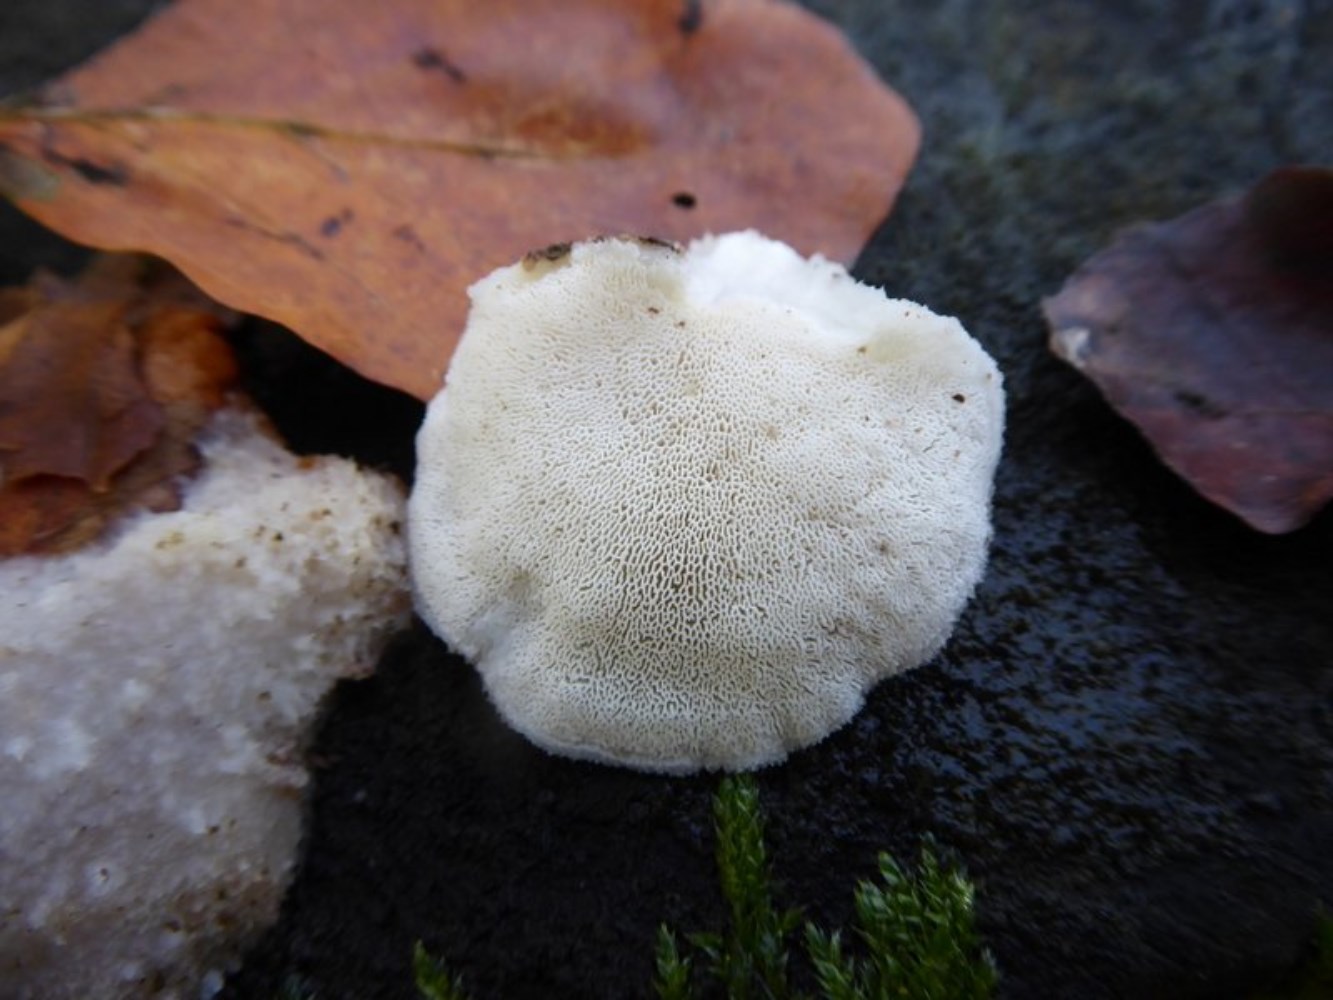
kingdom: Fungi
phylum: Basidiomycota
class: Agaricomycetes
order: Polyporales
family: Incrustoporiaceae
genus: Tyromyces
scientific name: Tyromyces lacteus
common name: mælkehvid kødporesvamp
